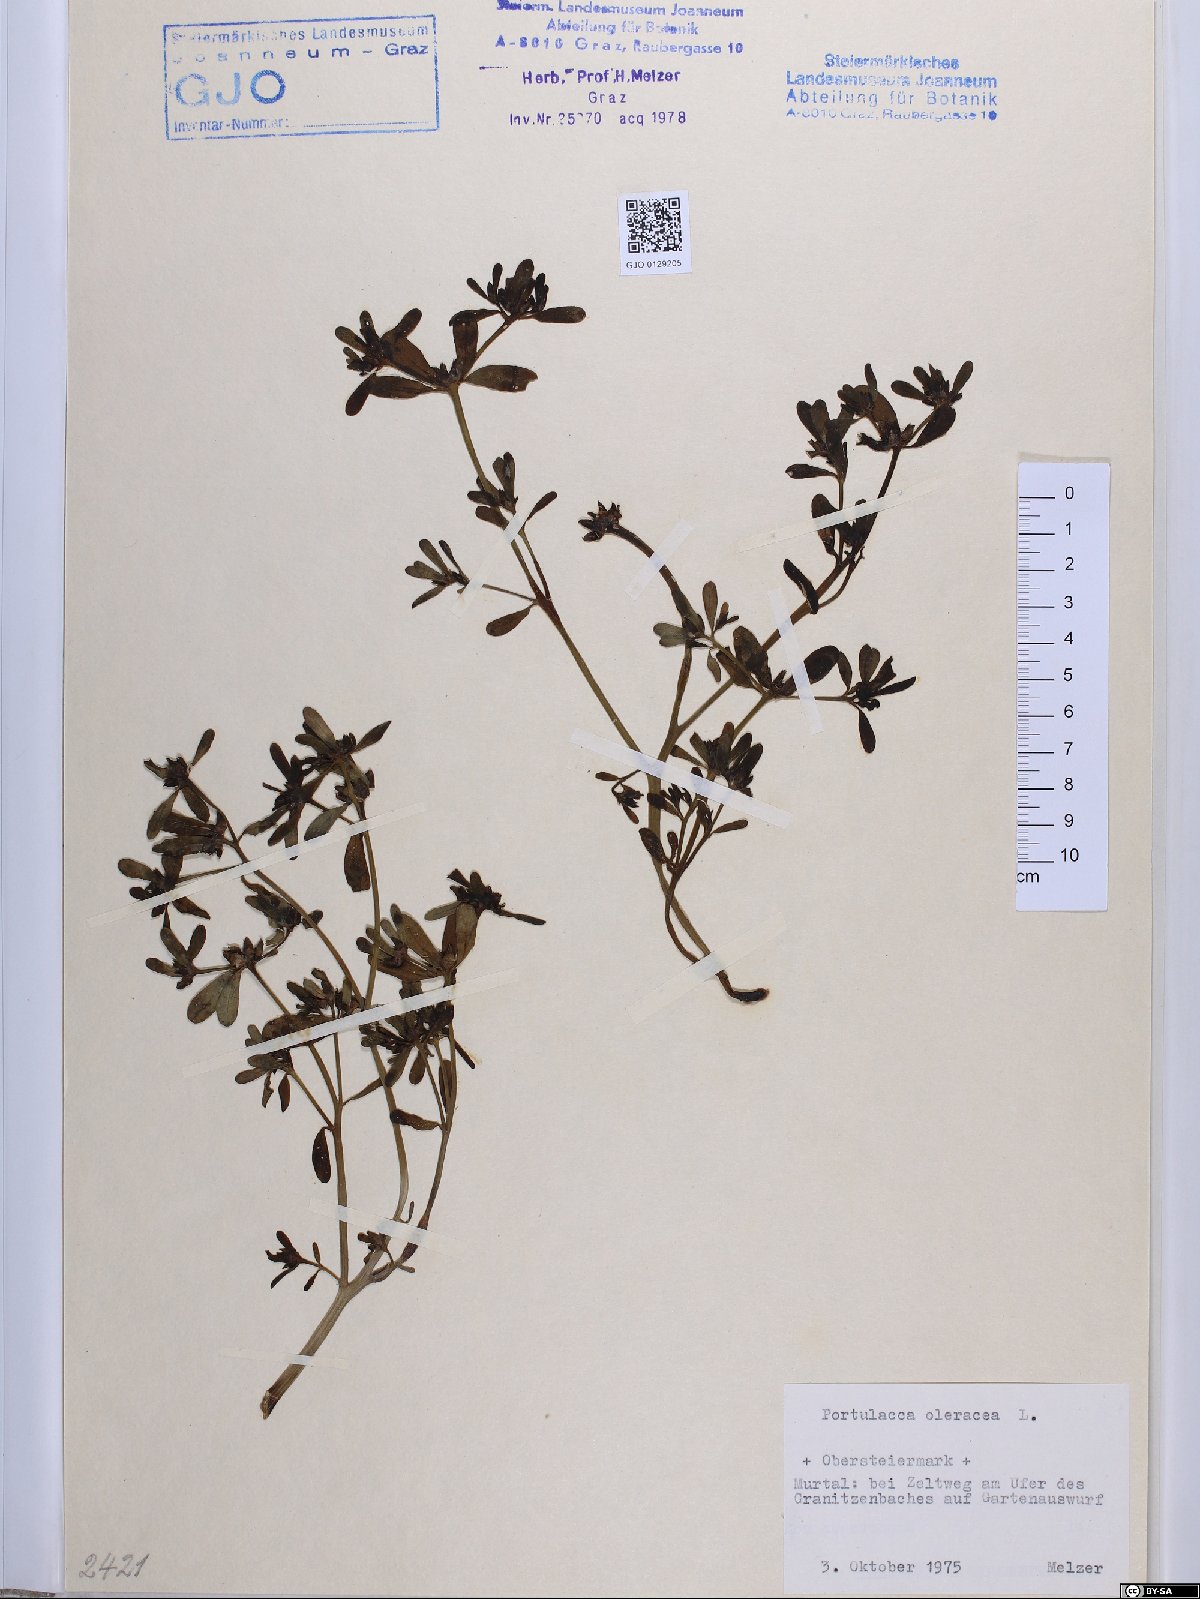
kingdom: Plantae
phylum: Tracheophyta
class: Magnoliopsida
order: Caryophyllales
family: Portulacaceae
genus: Portulaca
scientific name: Portulaca oleracea
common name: Common purslane
